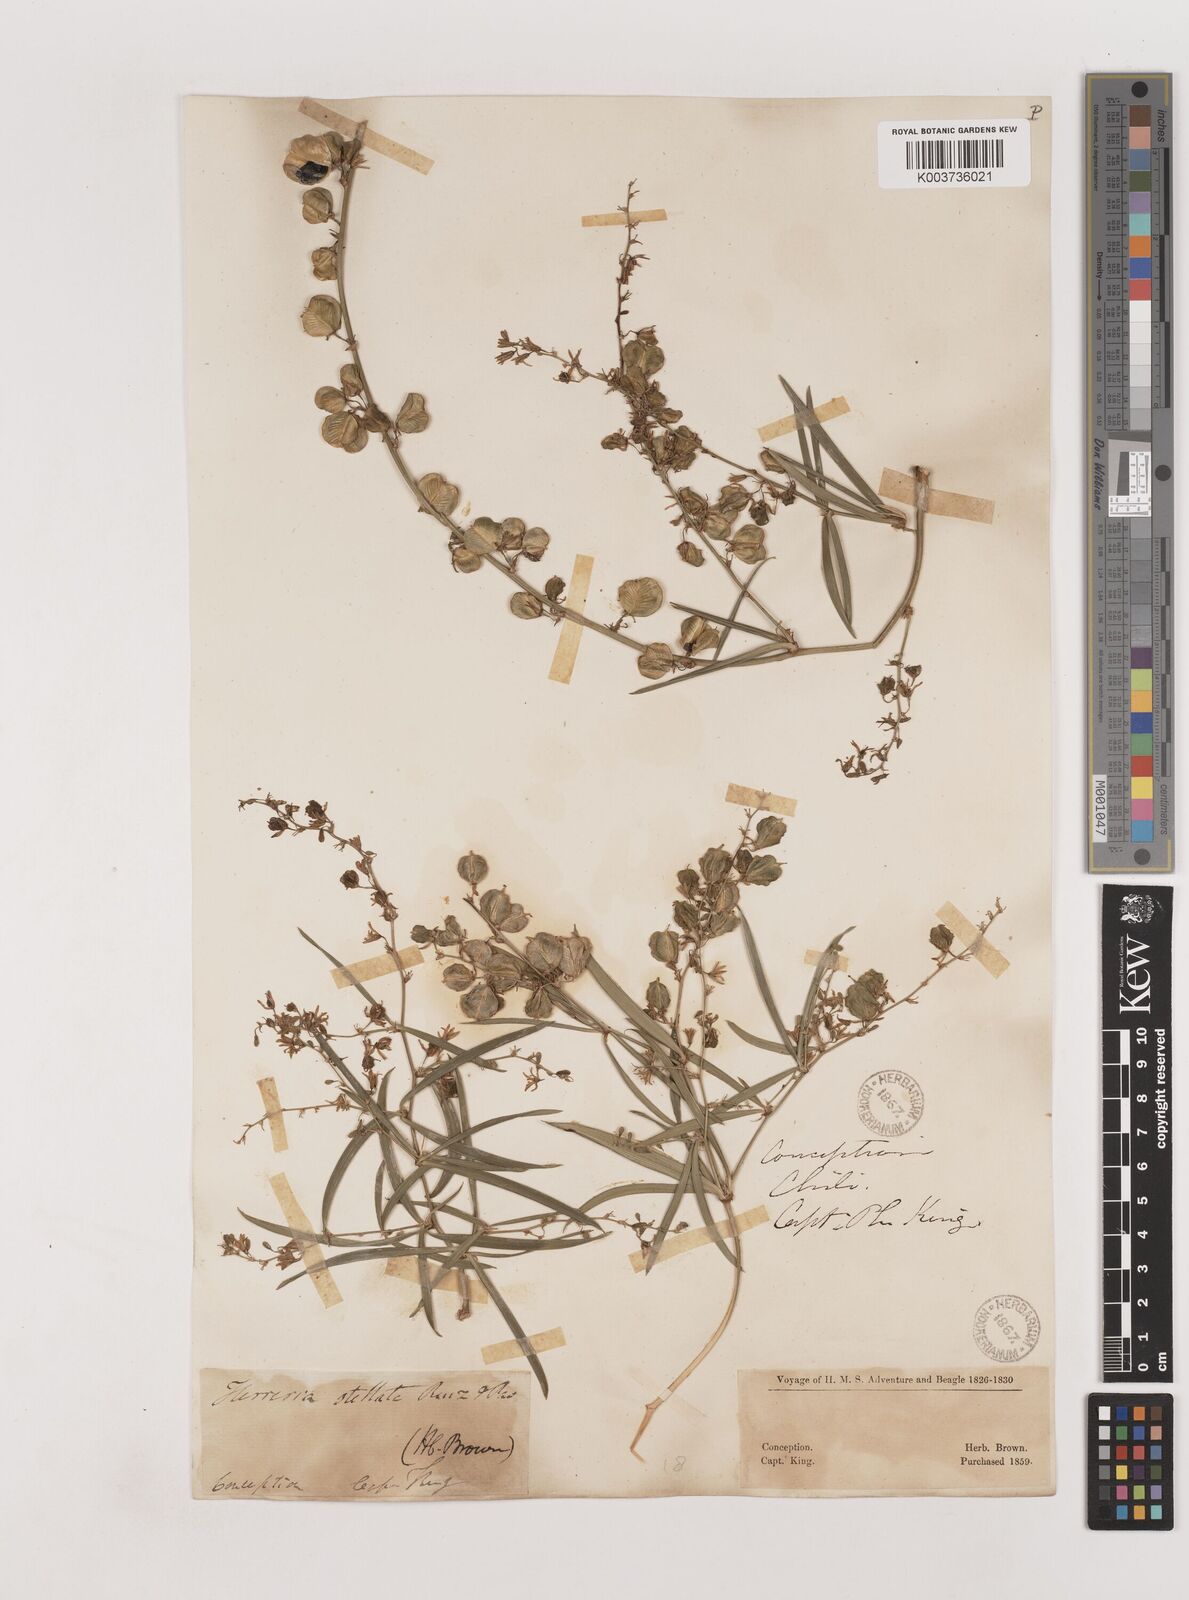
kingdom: Plantae
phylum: Tracheophyta
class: Liliopsida
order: Asparagales
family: Asparagaceae
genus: Herreria
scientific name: Herreria stellata
